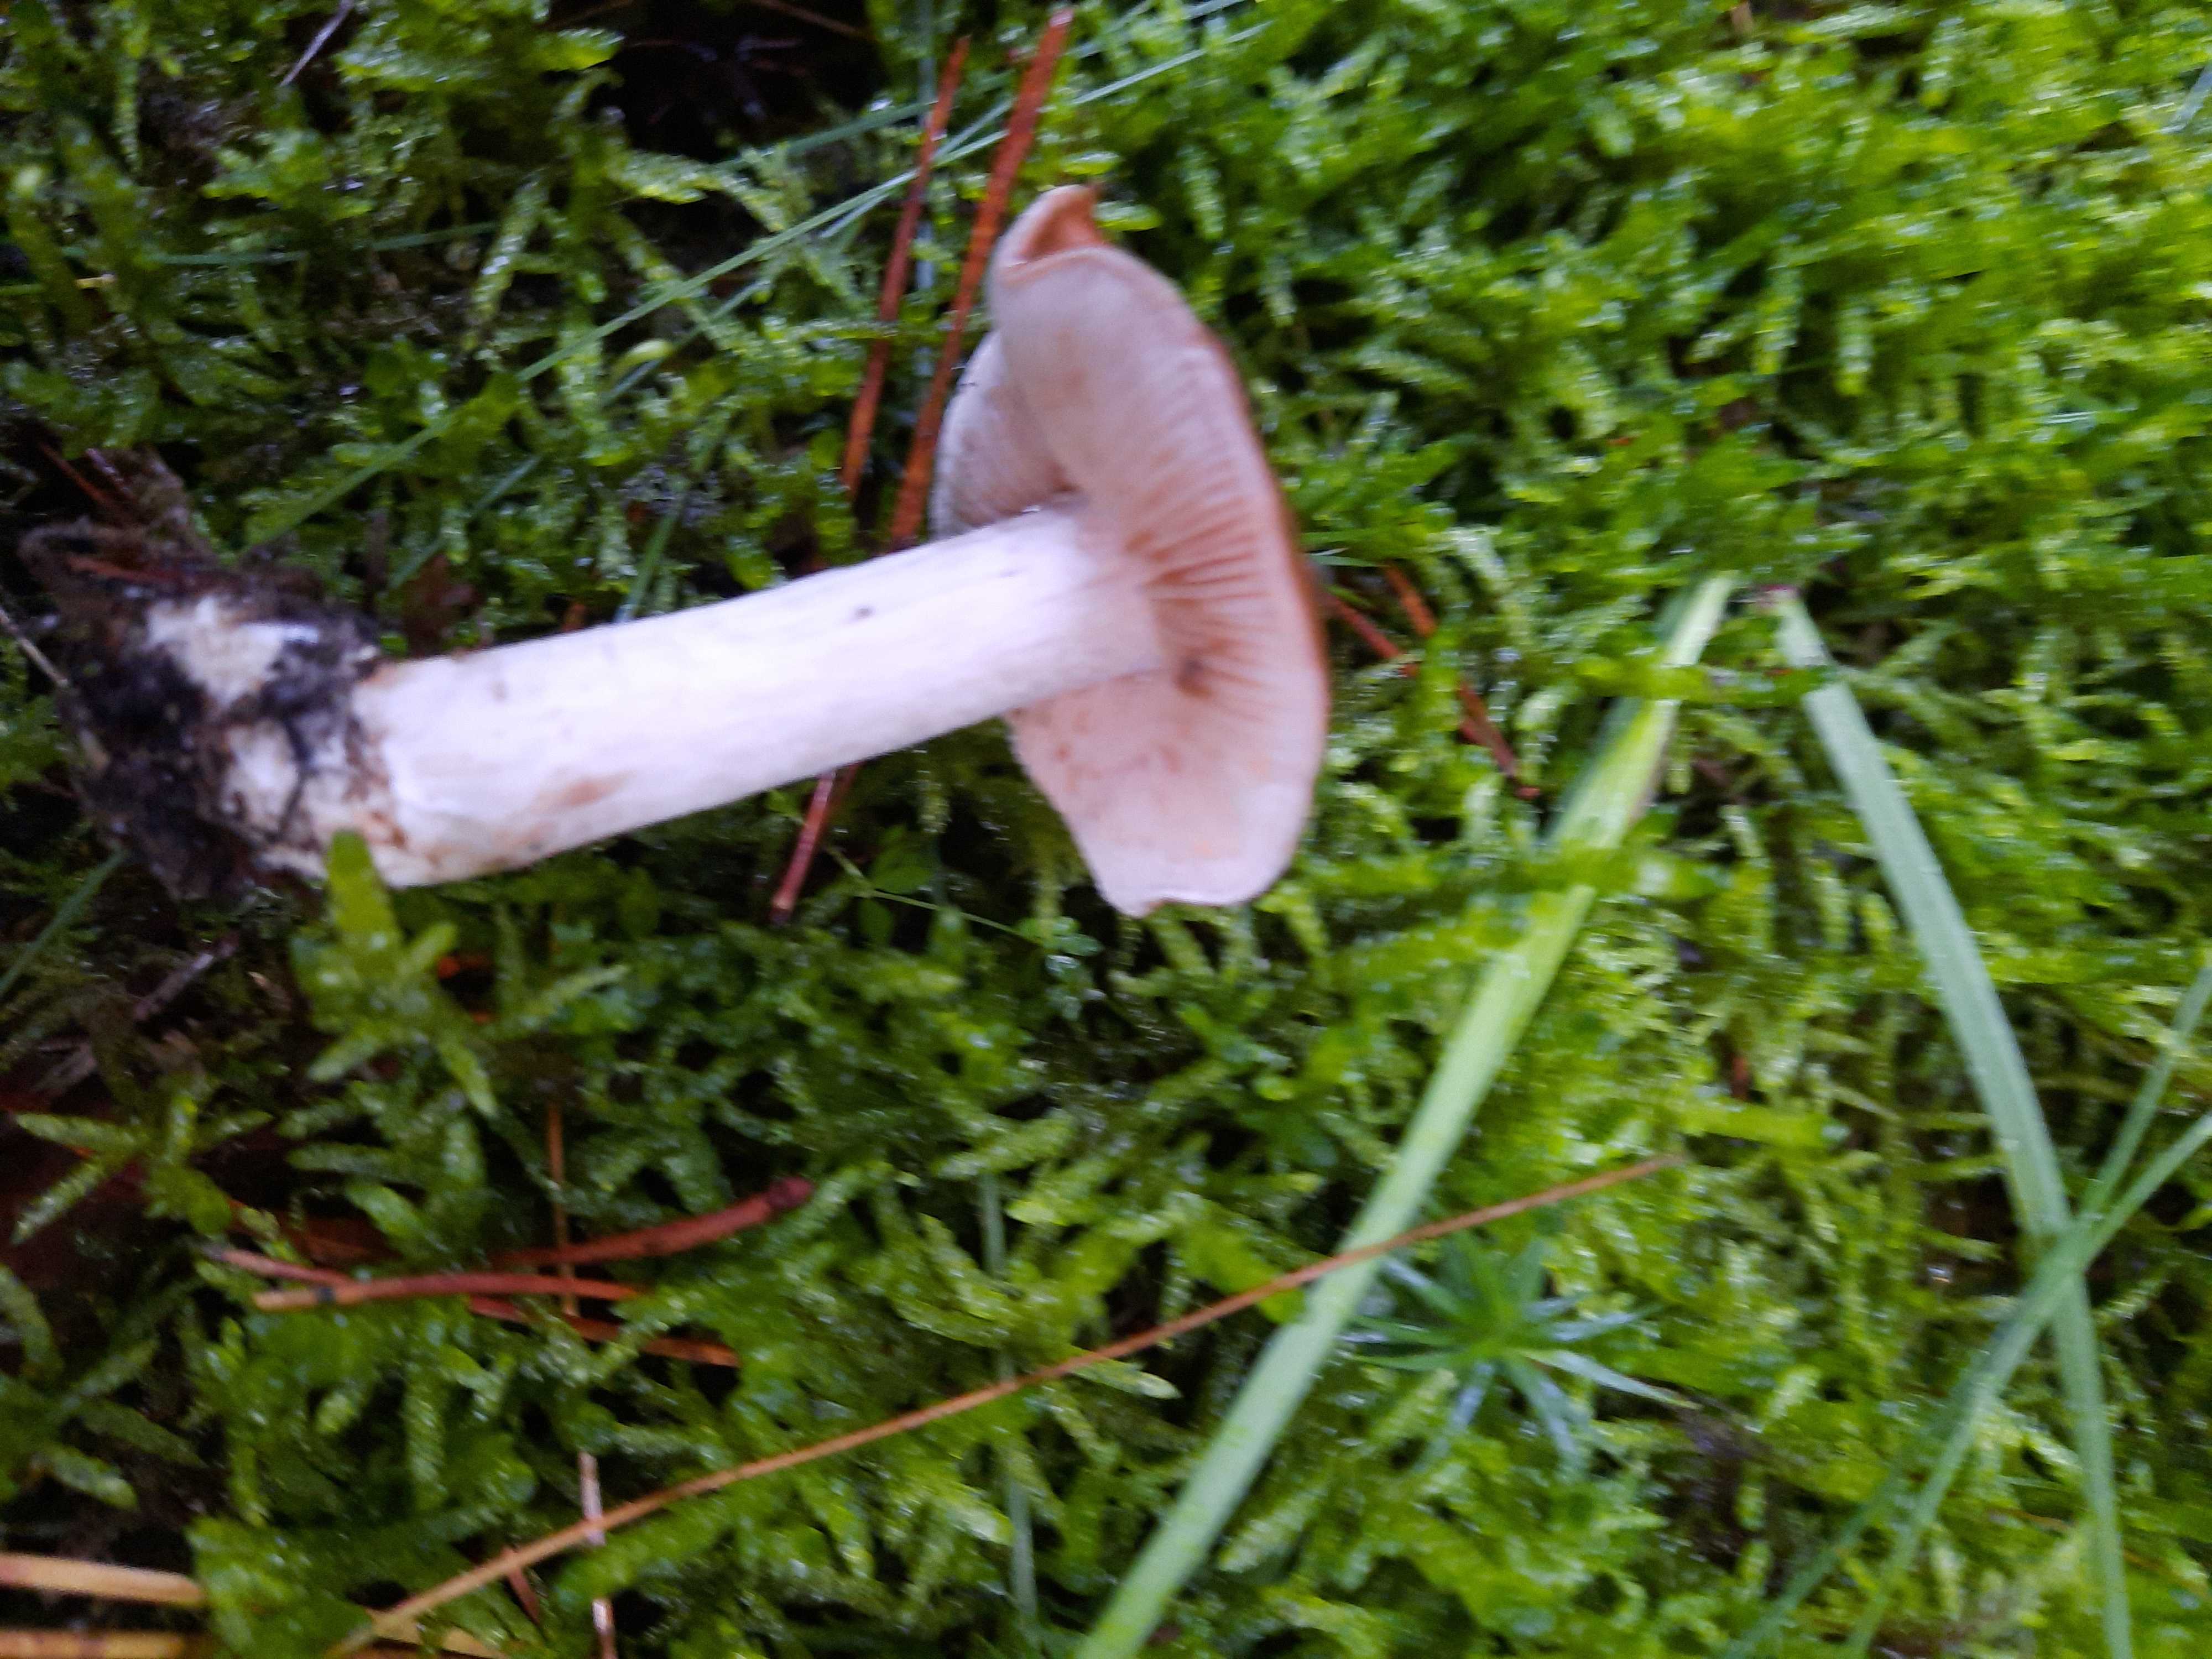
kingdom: Fungi
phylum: Basidiomycota
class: Agaricomycetes
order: Agaricales
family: Hymenogastraceae
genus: Hebeloma
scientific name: Hebeloma theobrominum
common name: rødbrun tåreblad
